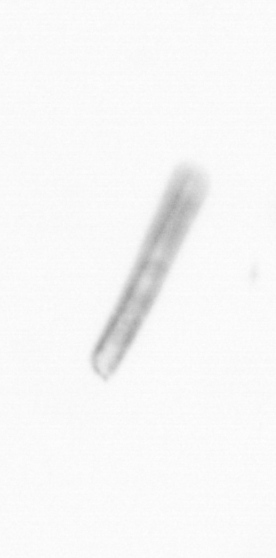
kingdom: Chromista
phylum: Ochrophyta
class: Bacillariophyceae
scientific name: Bacillariophyceae
